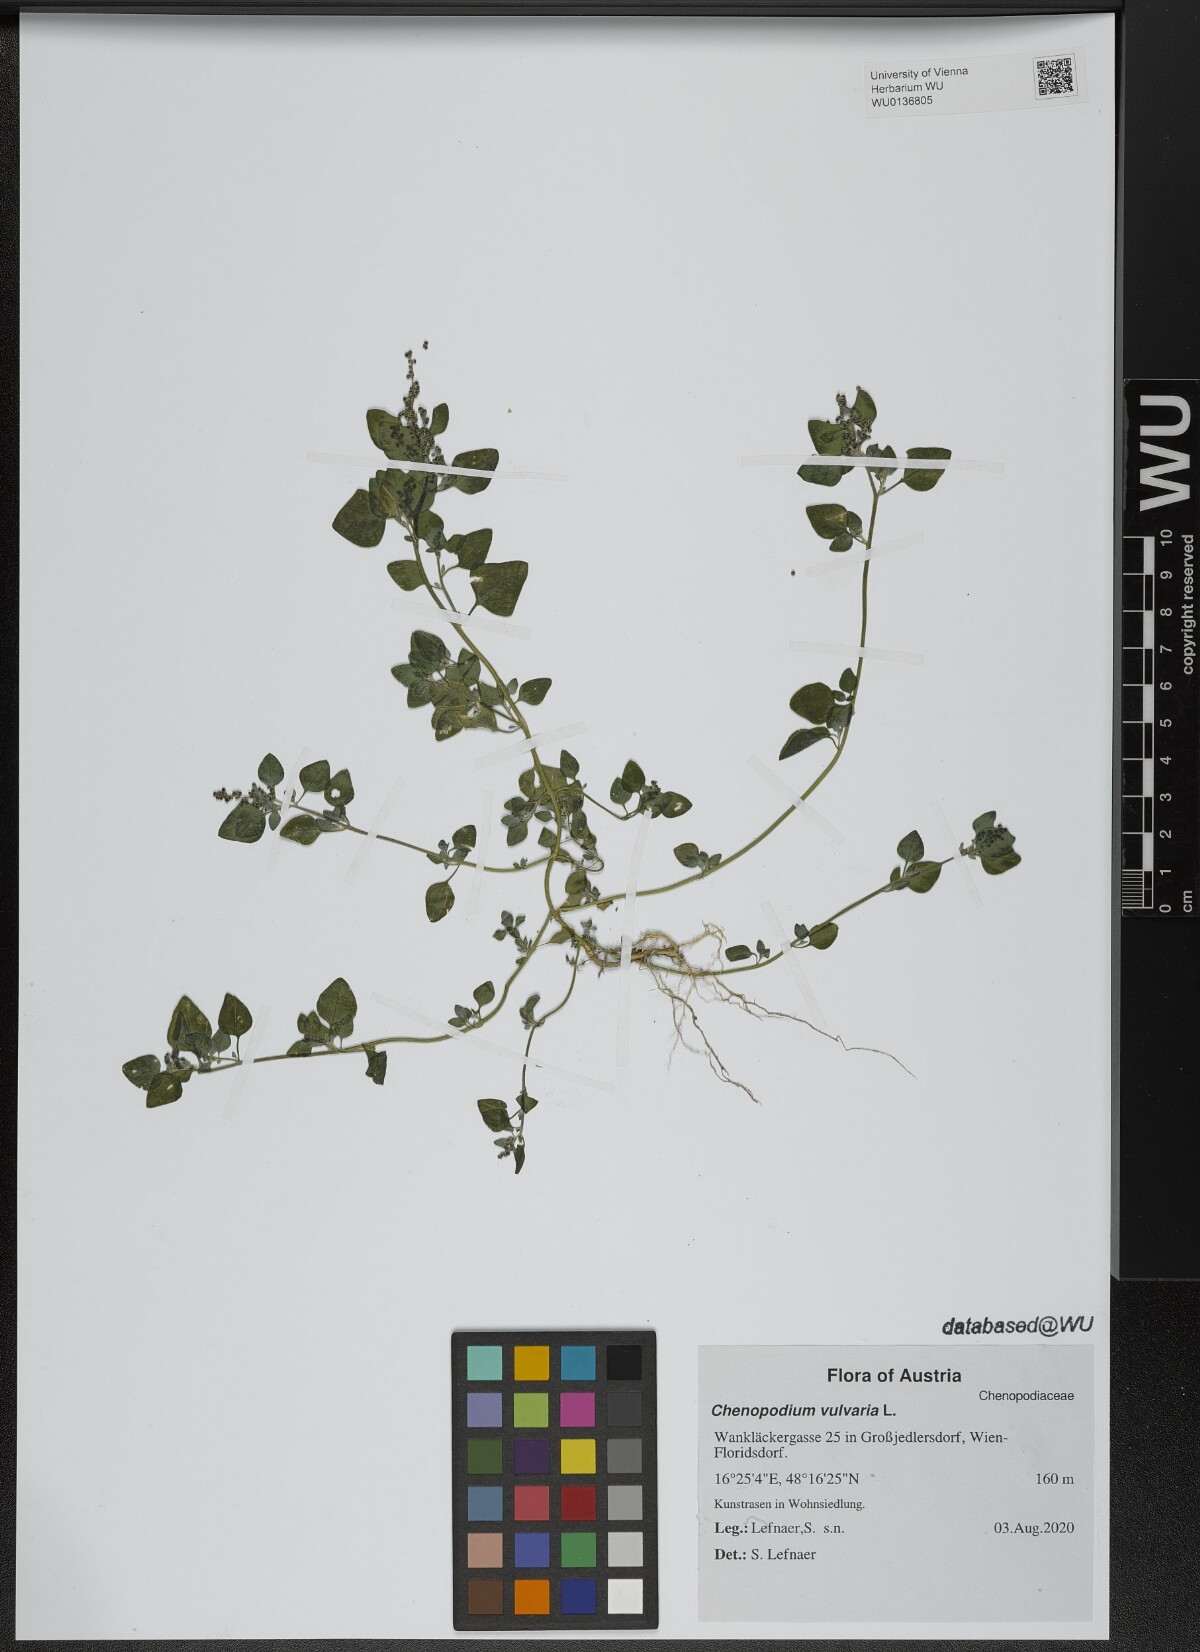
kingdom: Plantae
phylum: Tracheophyta
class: Magnoliopsida
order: Caryophyllales
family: Amaranthaceae
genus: Chenopodium
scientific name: Chenopodium vulvaria
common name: Stinking goosefoot
